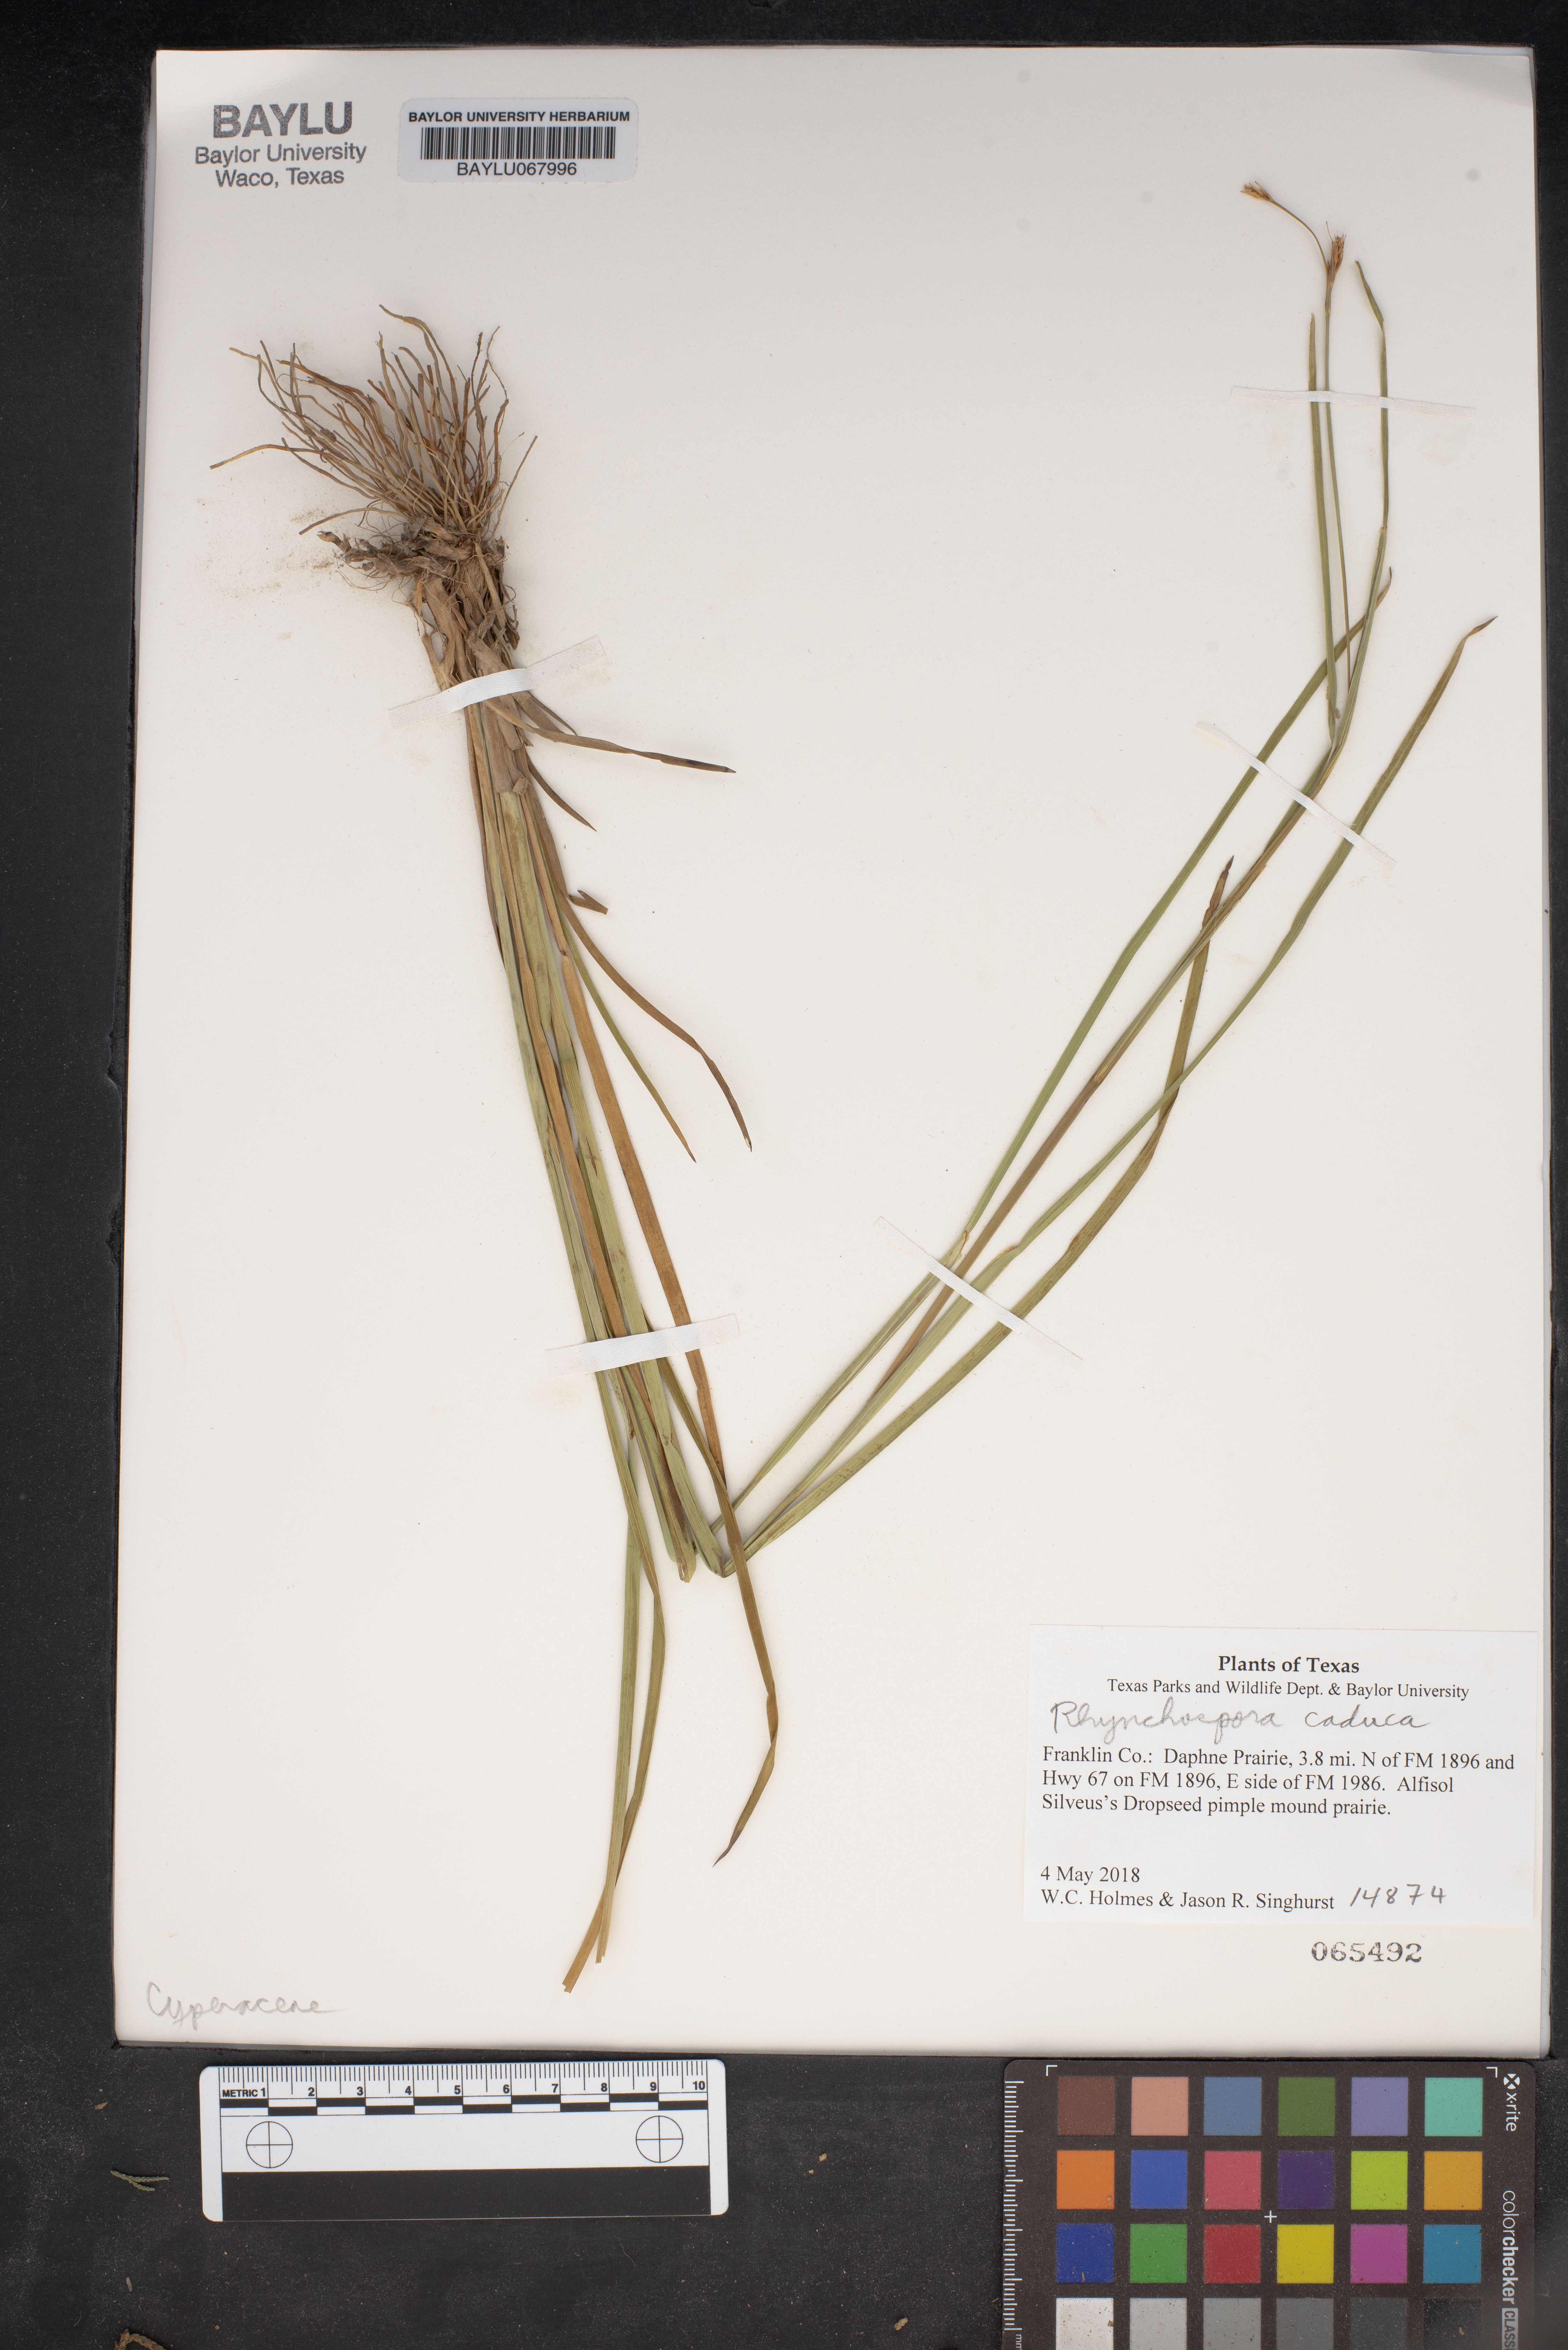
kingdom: Plantae
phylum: Tracheophyta
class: Liliopsida
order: Poales
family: Cyperaceae
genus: Rhynchospora
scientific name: Rhynchospora caduca
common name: Anglestem beaksedge
